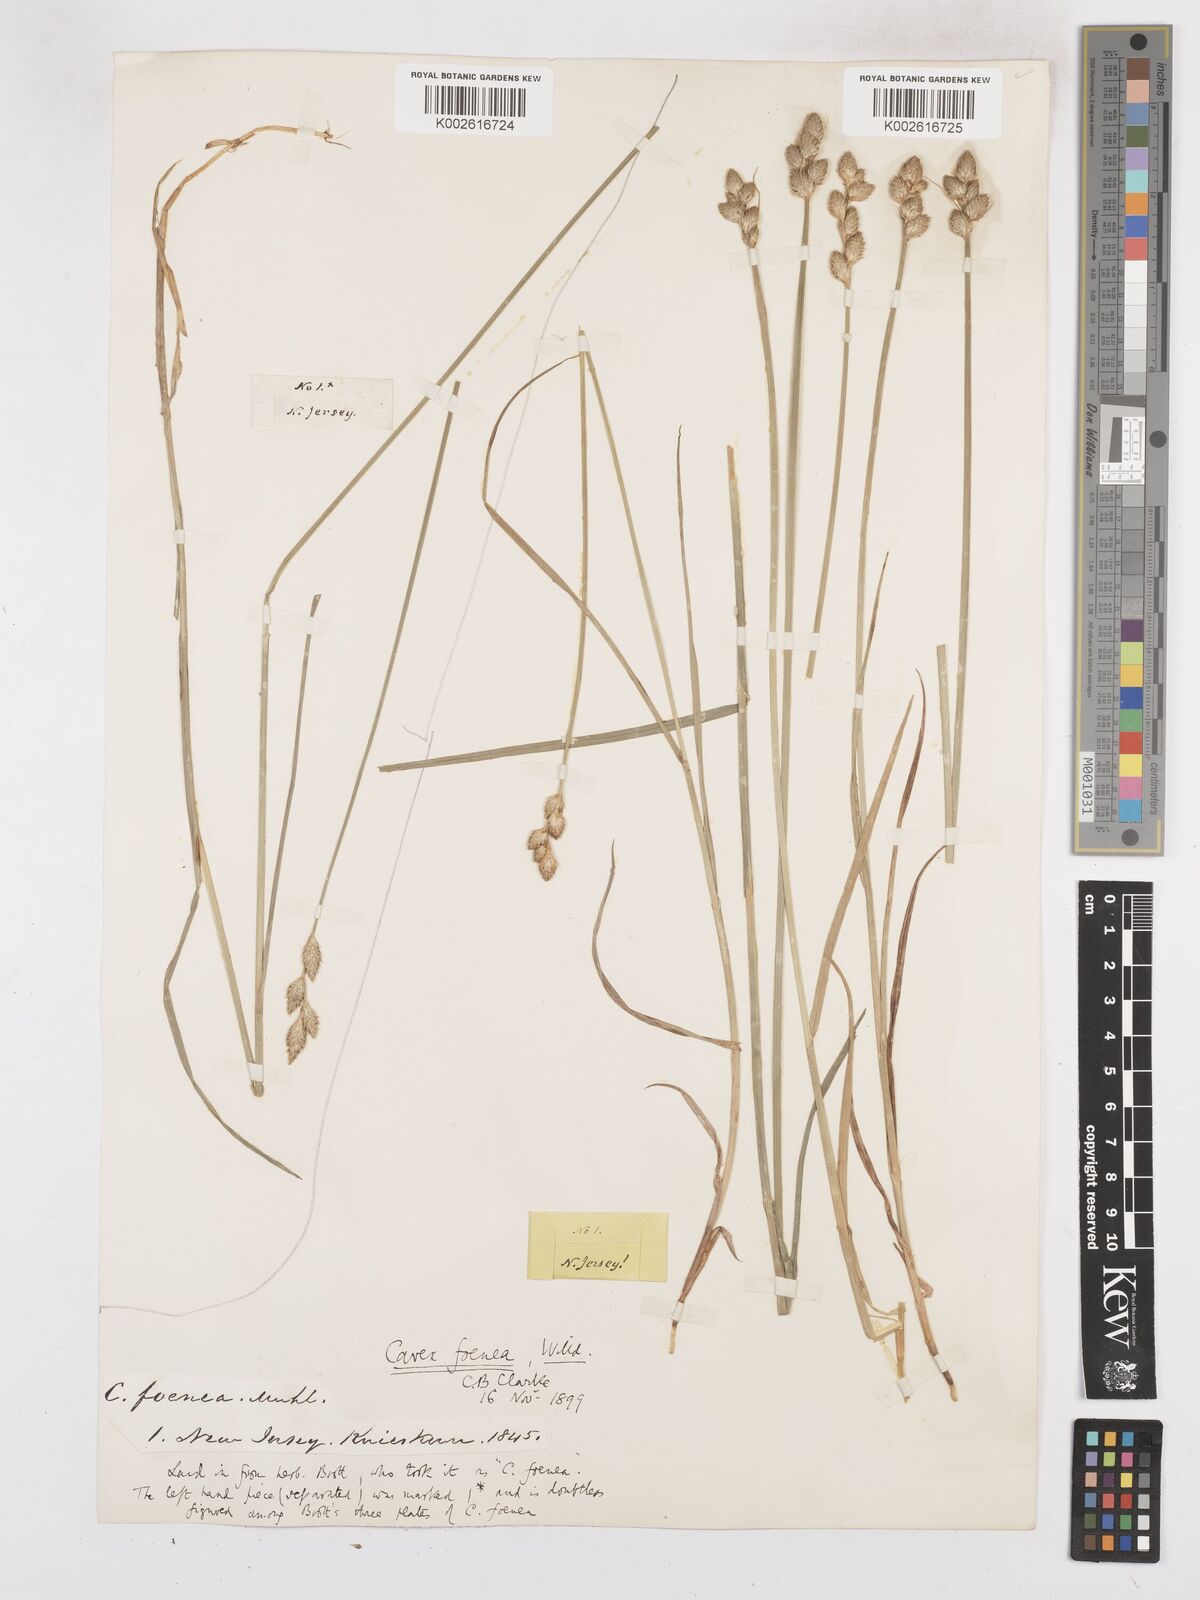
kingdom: Plantae
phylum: Tracheophyta
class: Liliopsida
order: Poales
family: Cyperaceae
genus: Carex
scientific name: Carex argyrantha
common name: Silvery-flowered sedge
